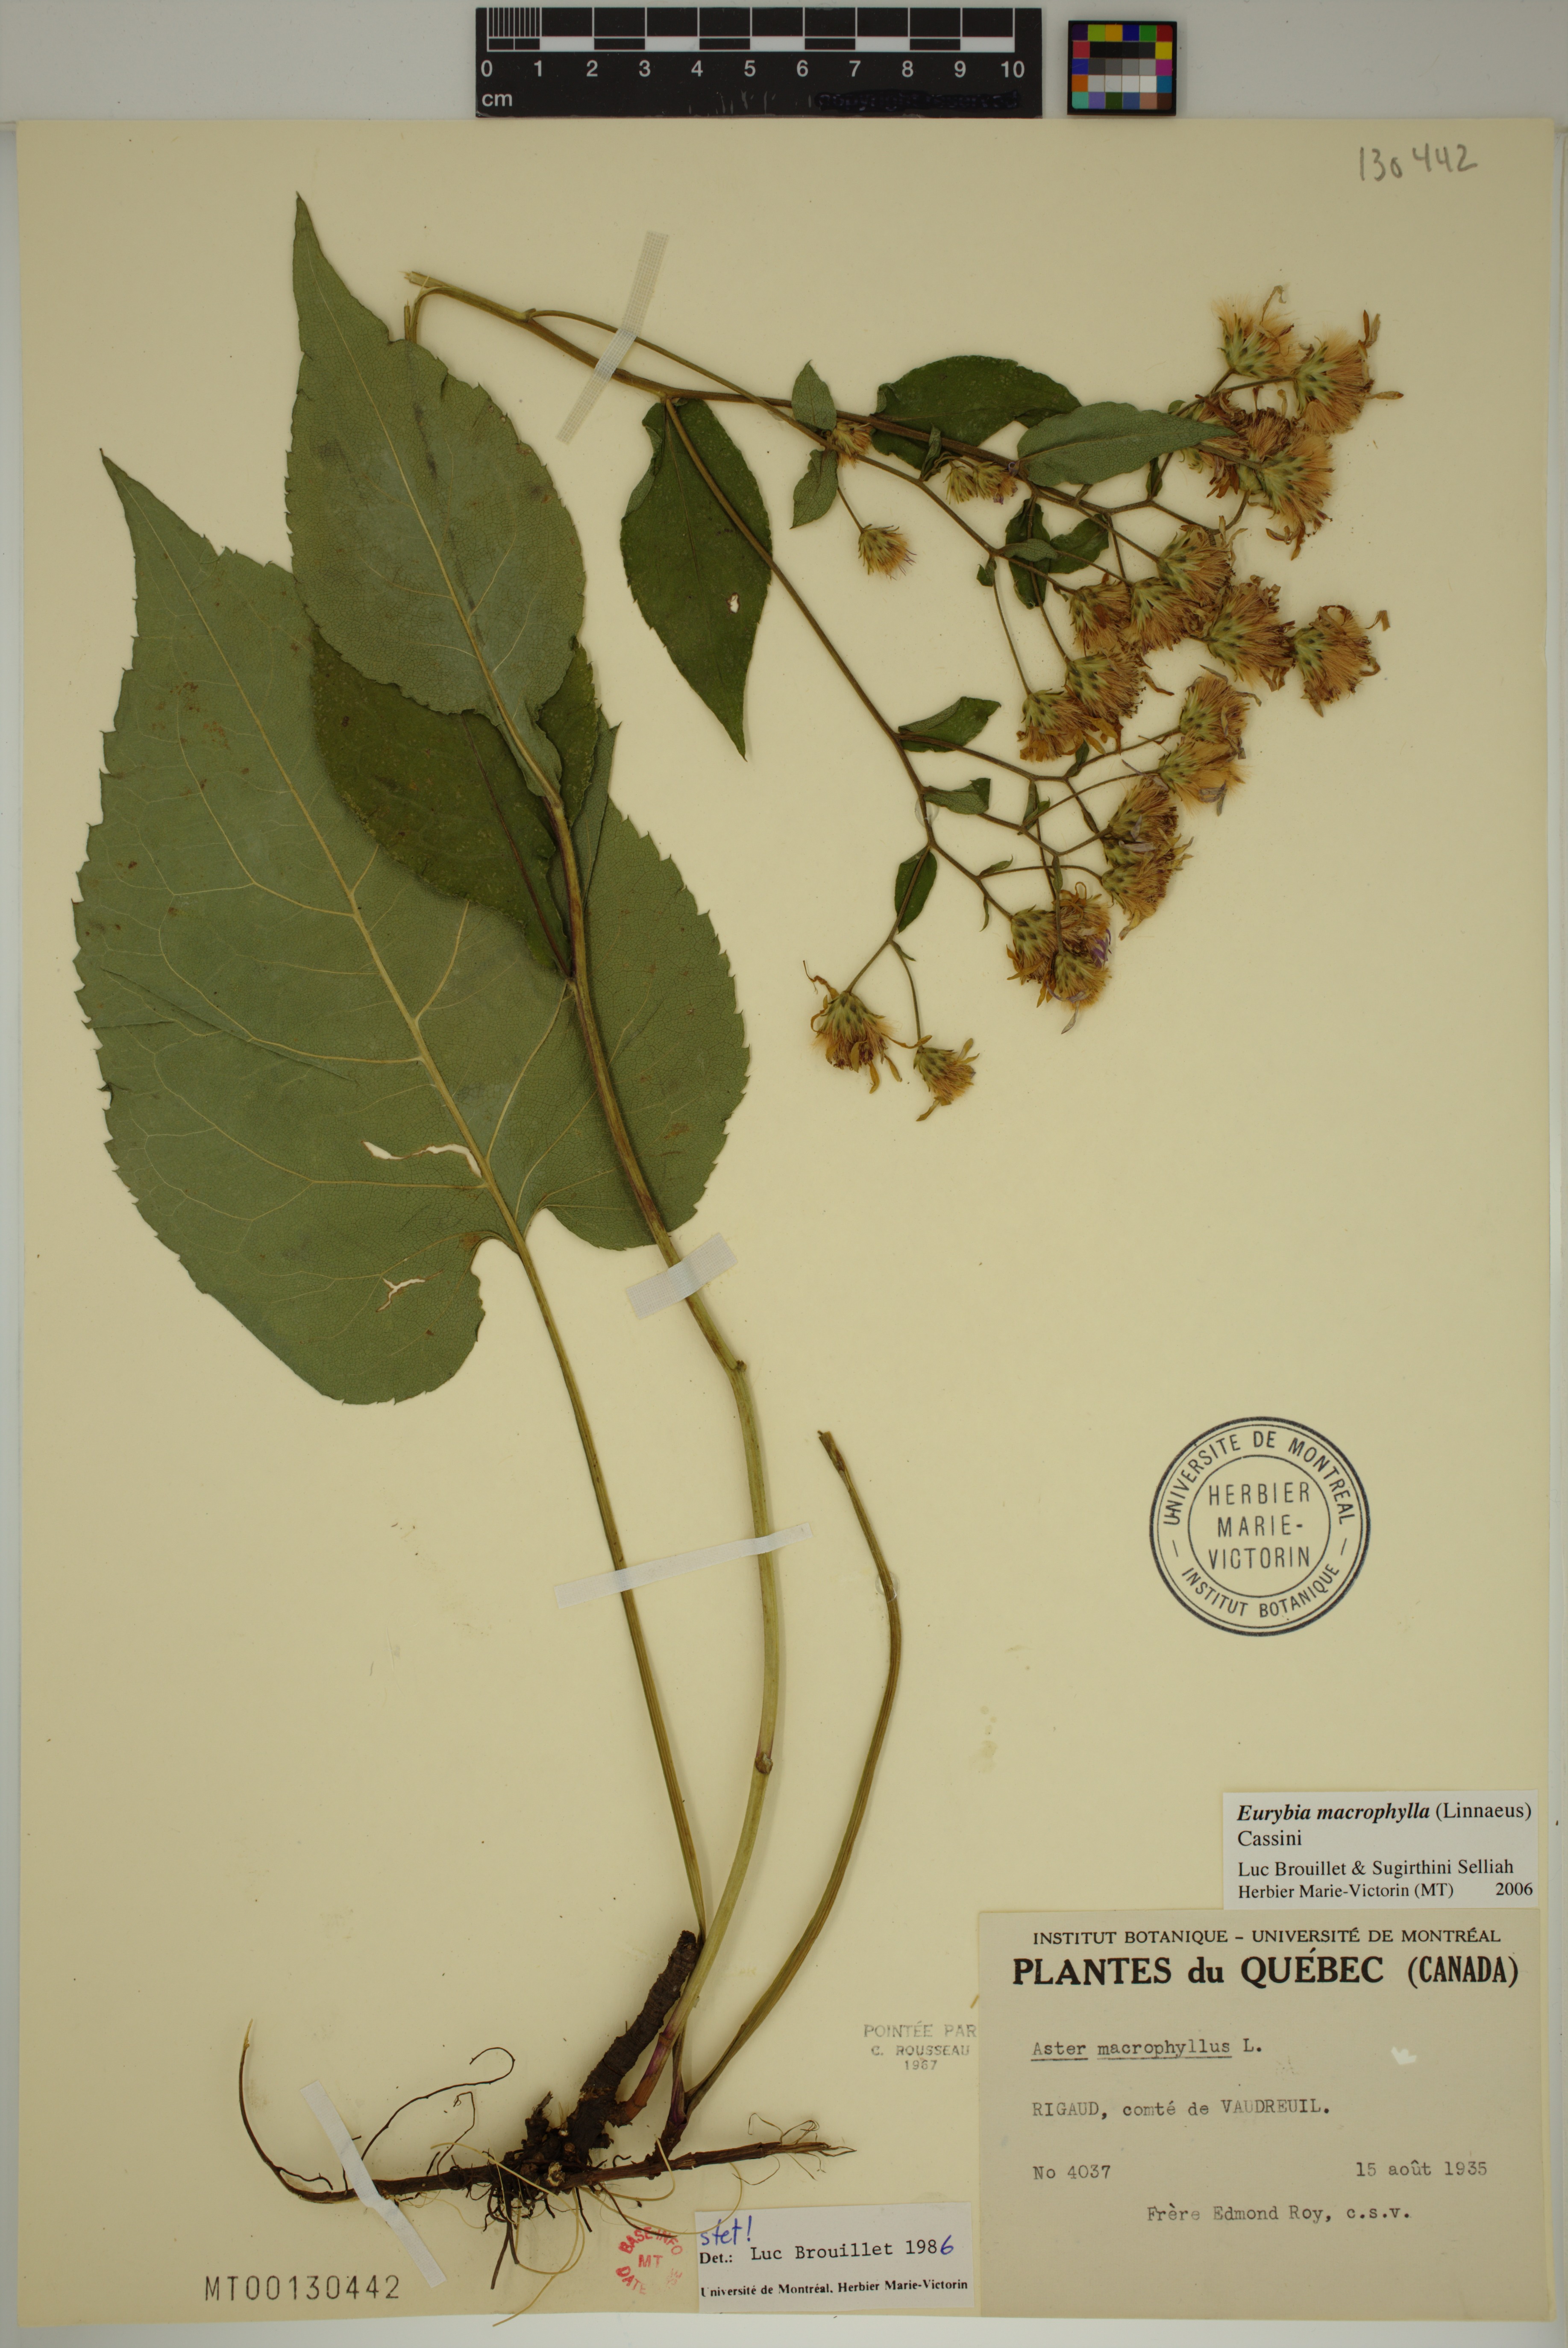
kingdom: Plantae
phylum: Tracheophyta
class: Magnoliopsida
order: Asterales
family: Asteraceae
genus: Eurybia
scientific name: Eurybia macrophylla
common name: Big-leaved aster
